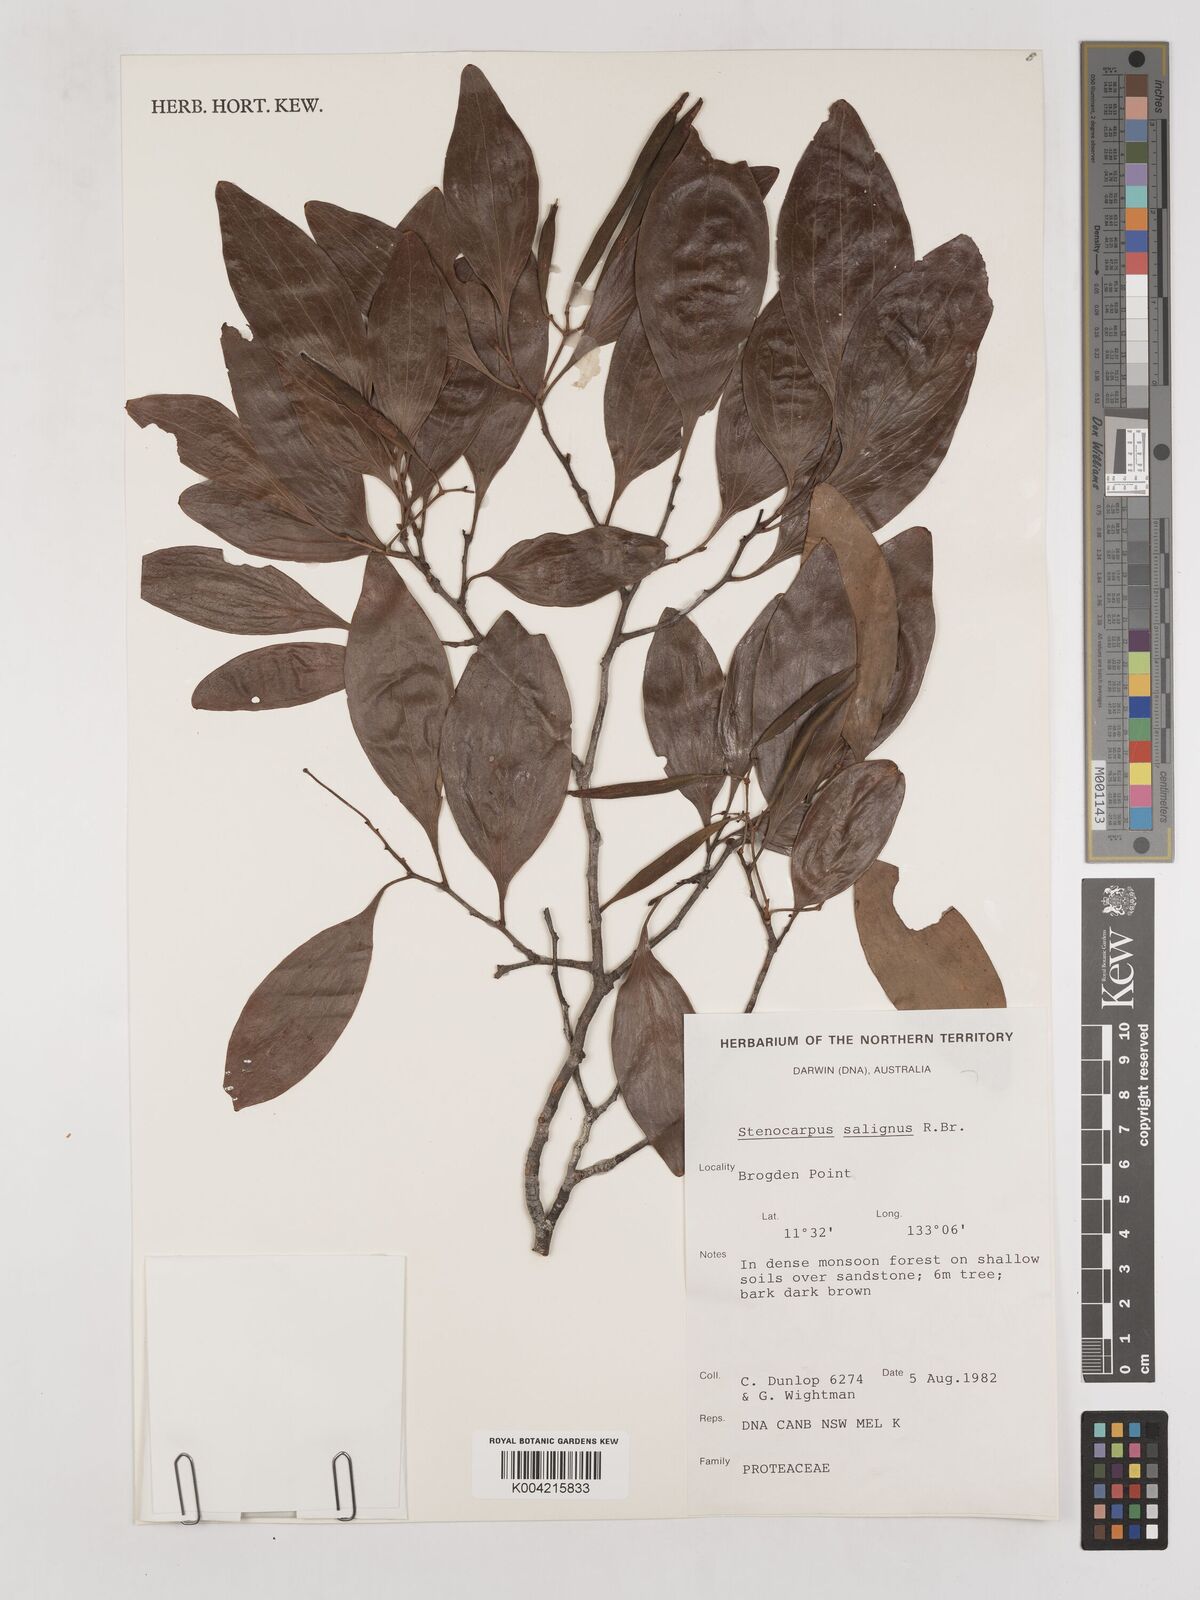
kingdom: Plantae
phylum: Tracheophyta
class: Magnoliopsida
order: Proteales
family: Proteaceae
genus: Stenocarpus
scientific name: Stenocarpus salignus
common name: Red silky-oak
